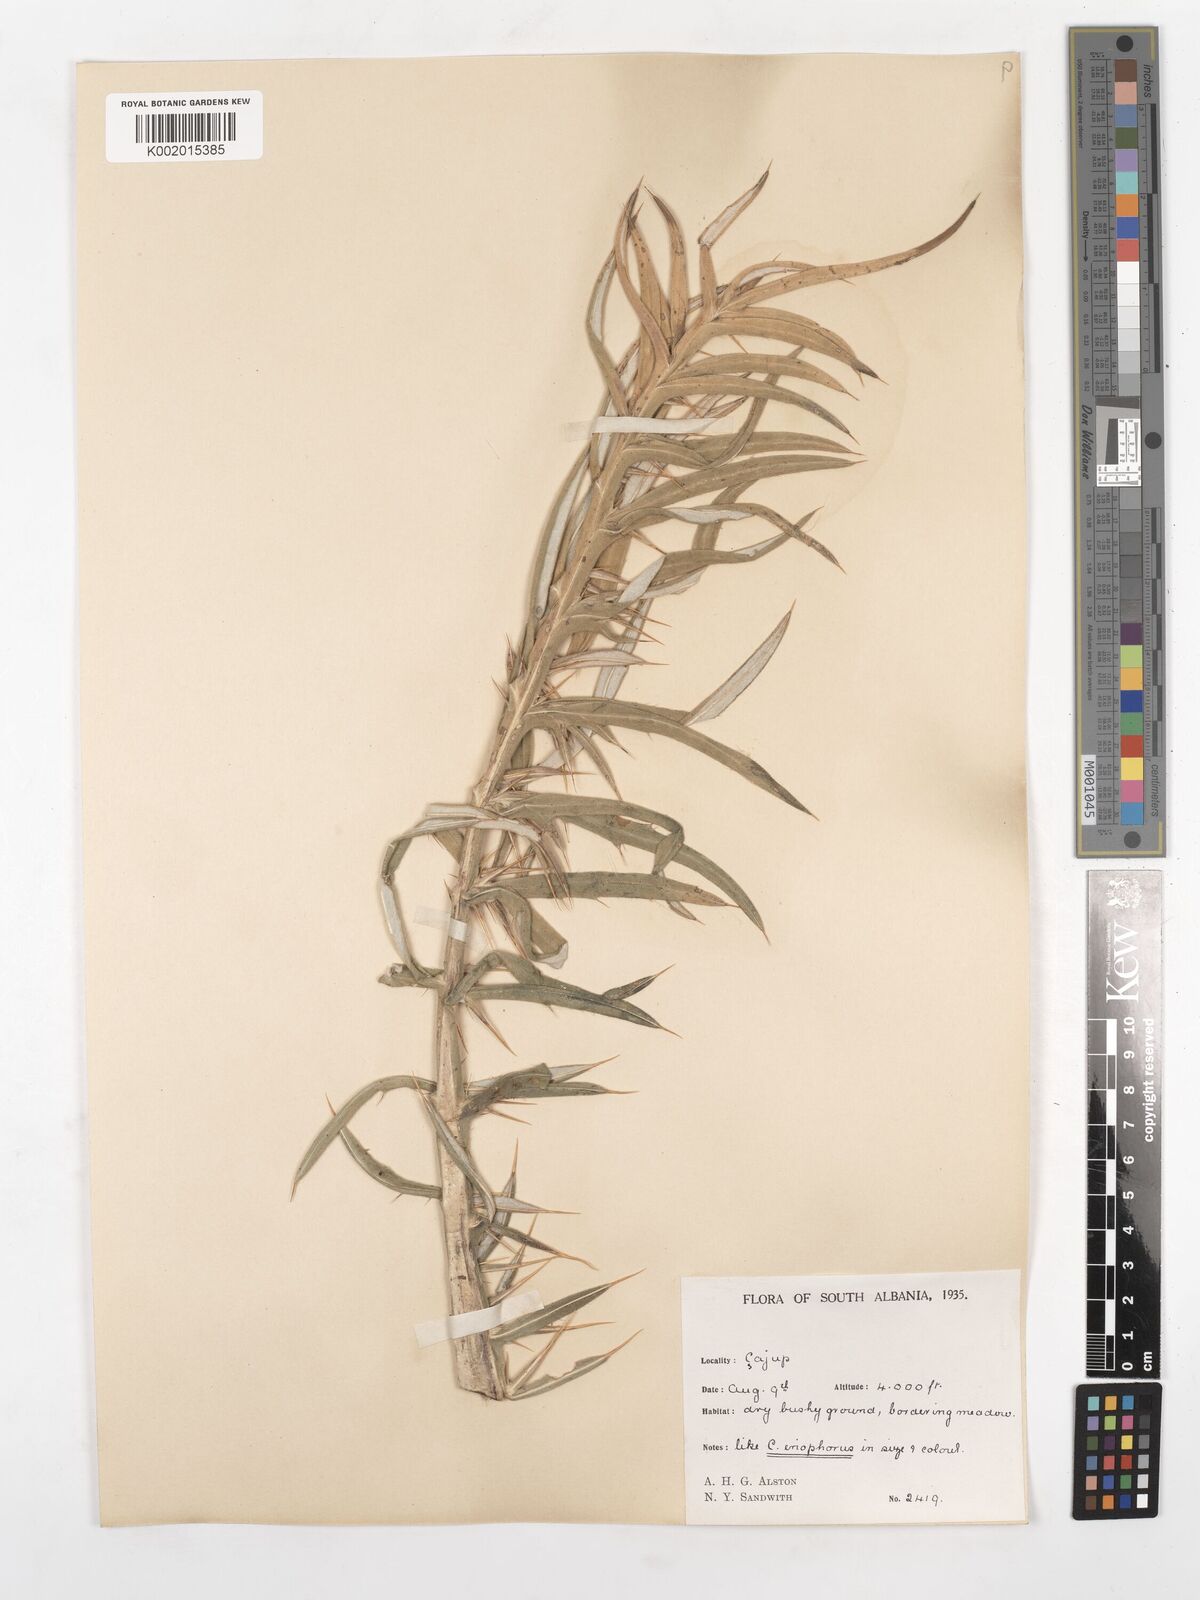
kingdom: Plantae
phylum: Tracheophyta
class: Magnoliopsida
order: Asterales
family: Asteraceae
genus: Lophiolepis
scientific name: Lophiolepis boujartii
